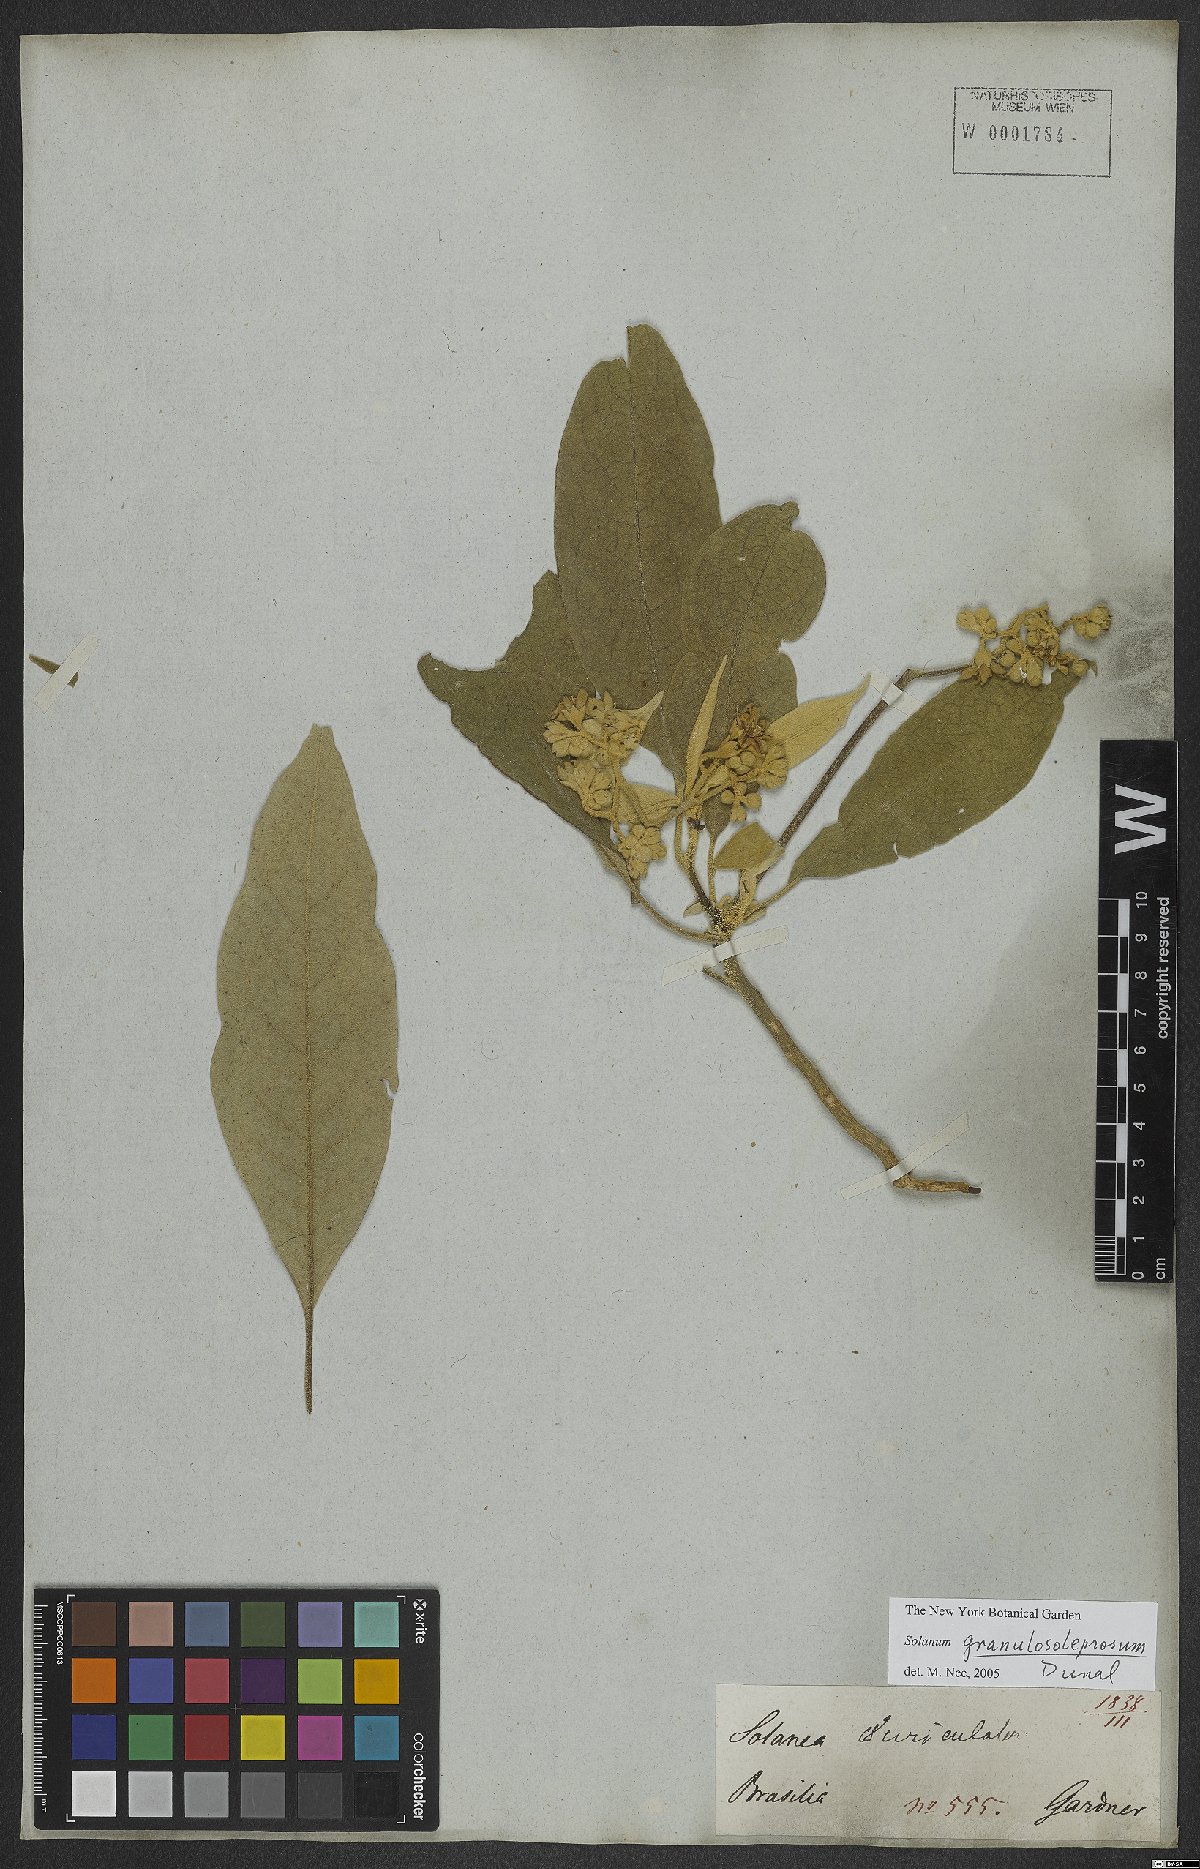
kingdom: Plantae
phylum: Tracheophyta
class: Magnoliopsida
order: Solanales
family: Solanaceae
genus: Solanum
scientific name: Solanum granulosoleprosum
